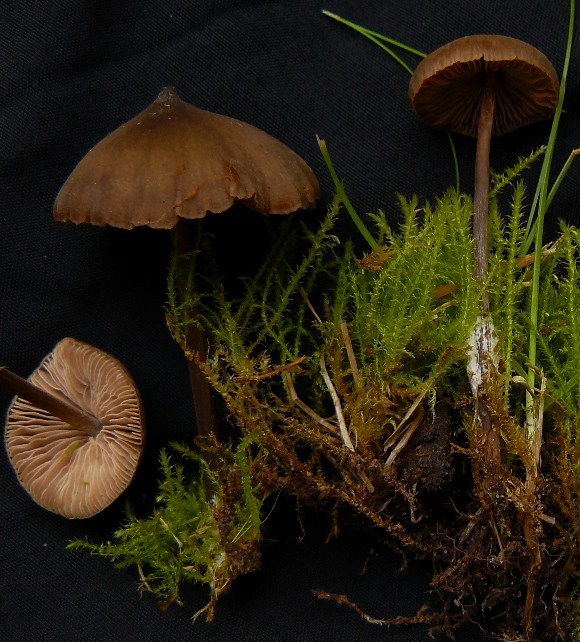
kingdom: Fungi
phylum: Basidiomycota
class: Agaricomycetes
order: Agaricales
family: Entolomataceae
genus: Entoloma
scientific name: Entoloma clandestinum
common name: tykbladet rødblad
